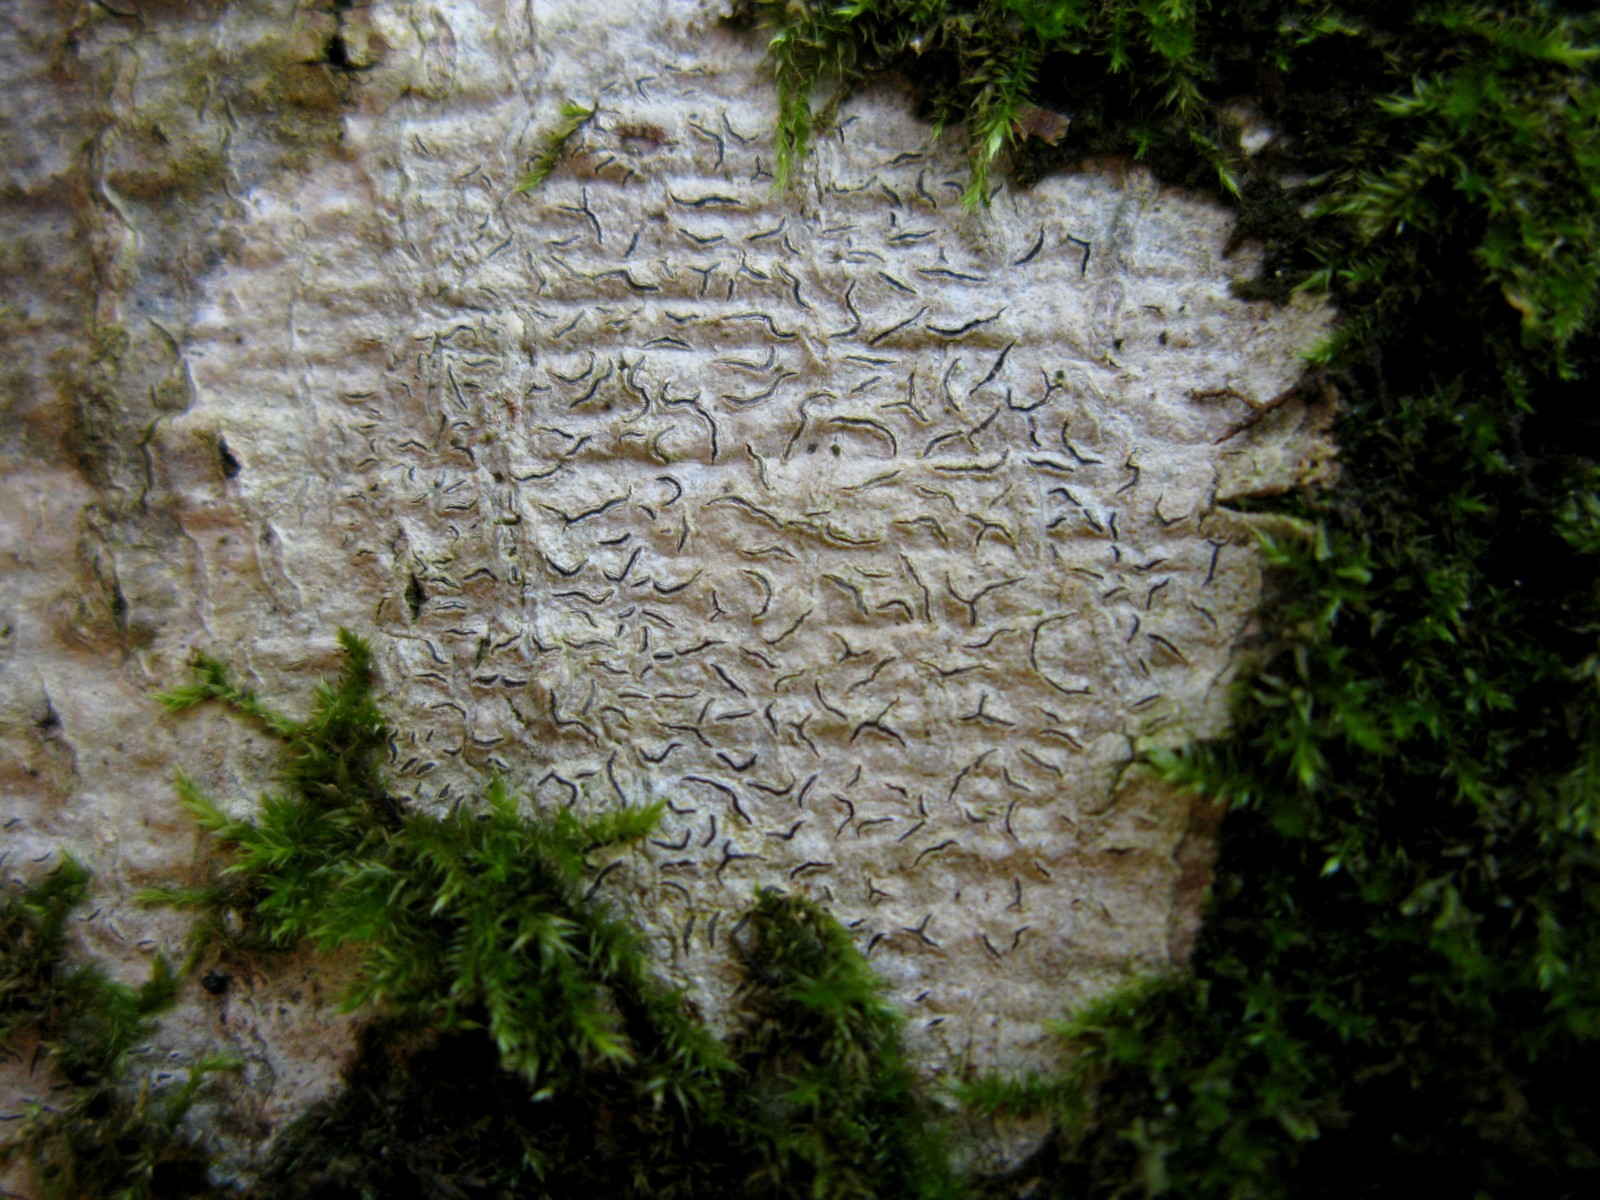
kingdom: Fungi
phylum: Ascomycota
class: Lecanoromycetes
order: Ostropales
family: Graphidaceae
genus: Graphis
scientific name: Graphis scripta
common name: almindelig skriftlav
